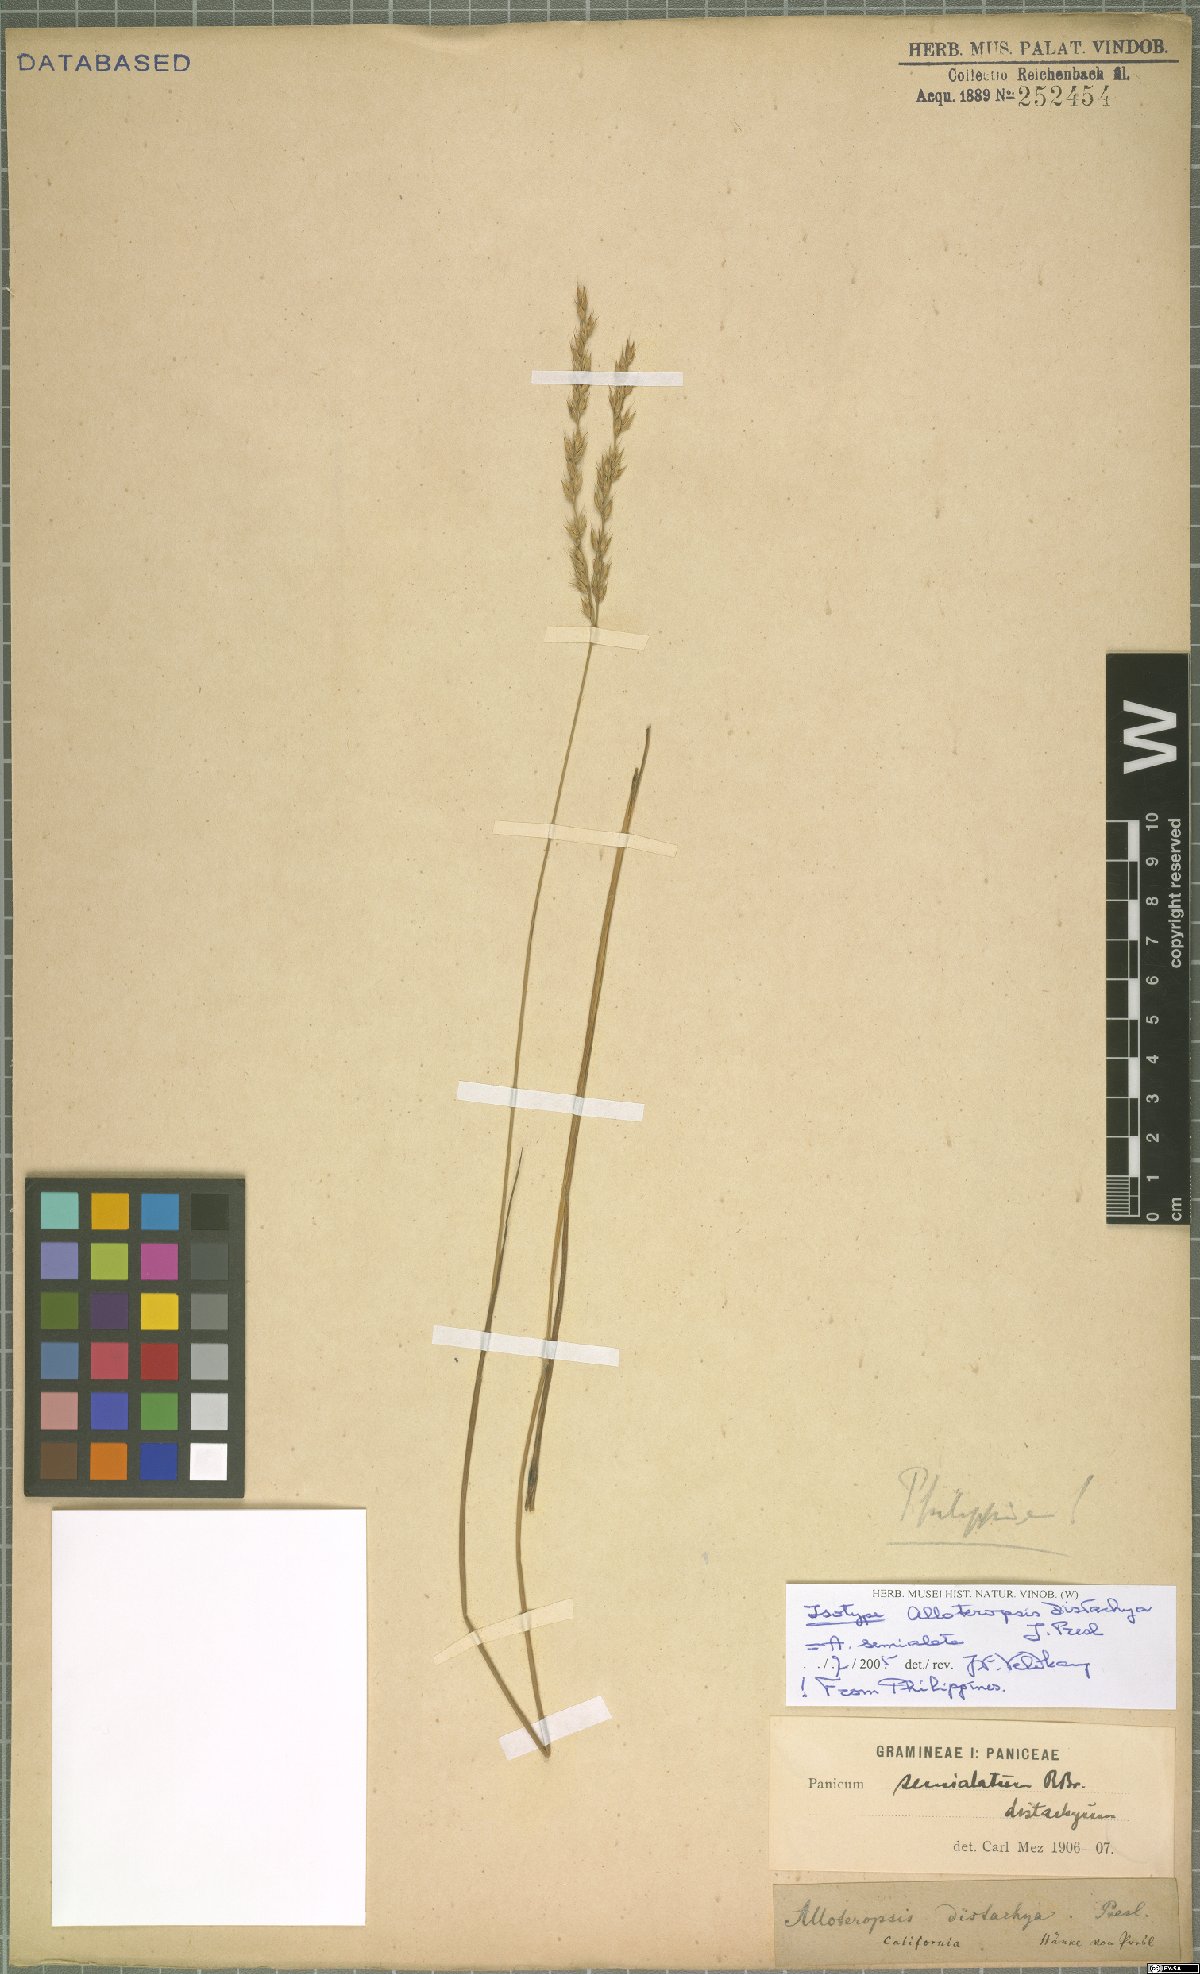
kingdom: Plantae
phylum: Tracheophyta
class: Liliopsida
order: Poales
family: Poaceae
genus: Alloteropsis
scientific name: Alloteropsis semialata
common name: Cockatoo grass
